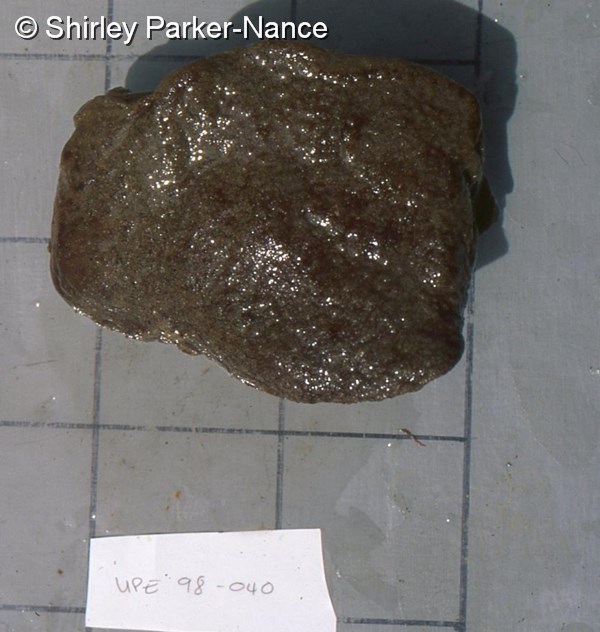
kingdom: Animalia
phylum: Chordata
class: Ascidiacea
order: Aplousobranchia
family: Polyclinidae
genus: Aplidiopsis
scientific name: Aplidiopsis
